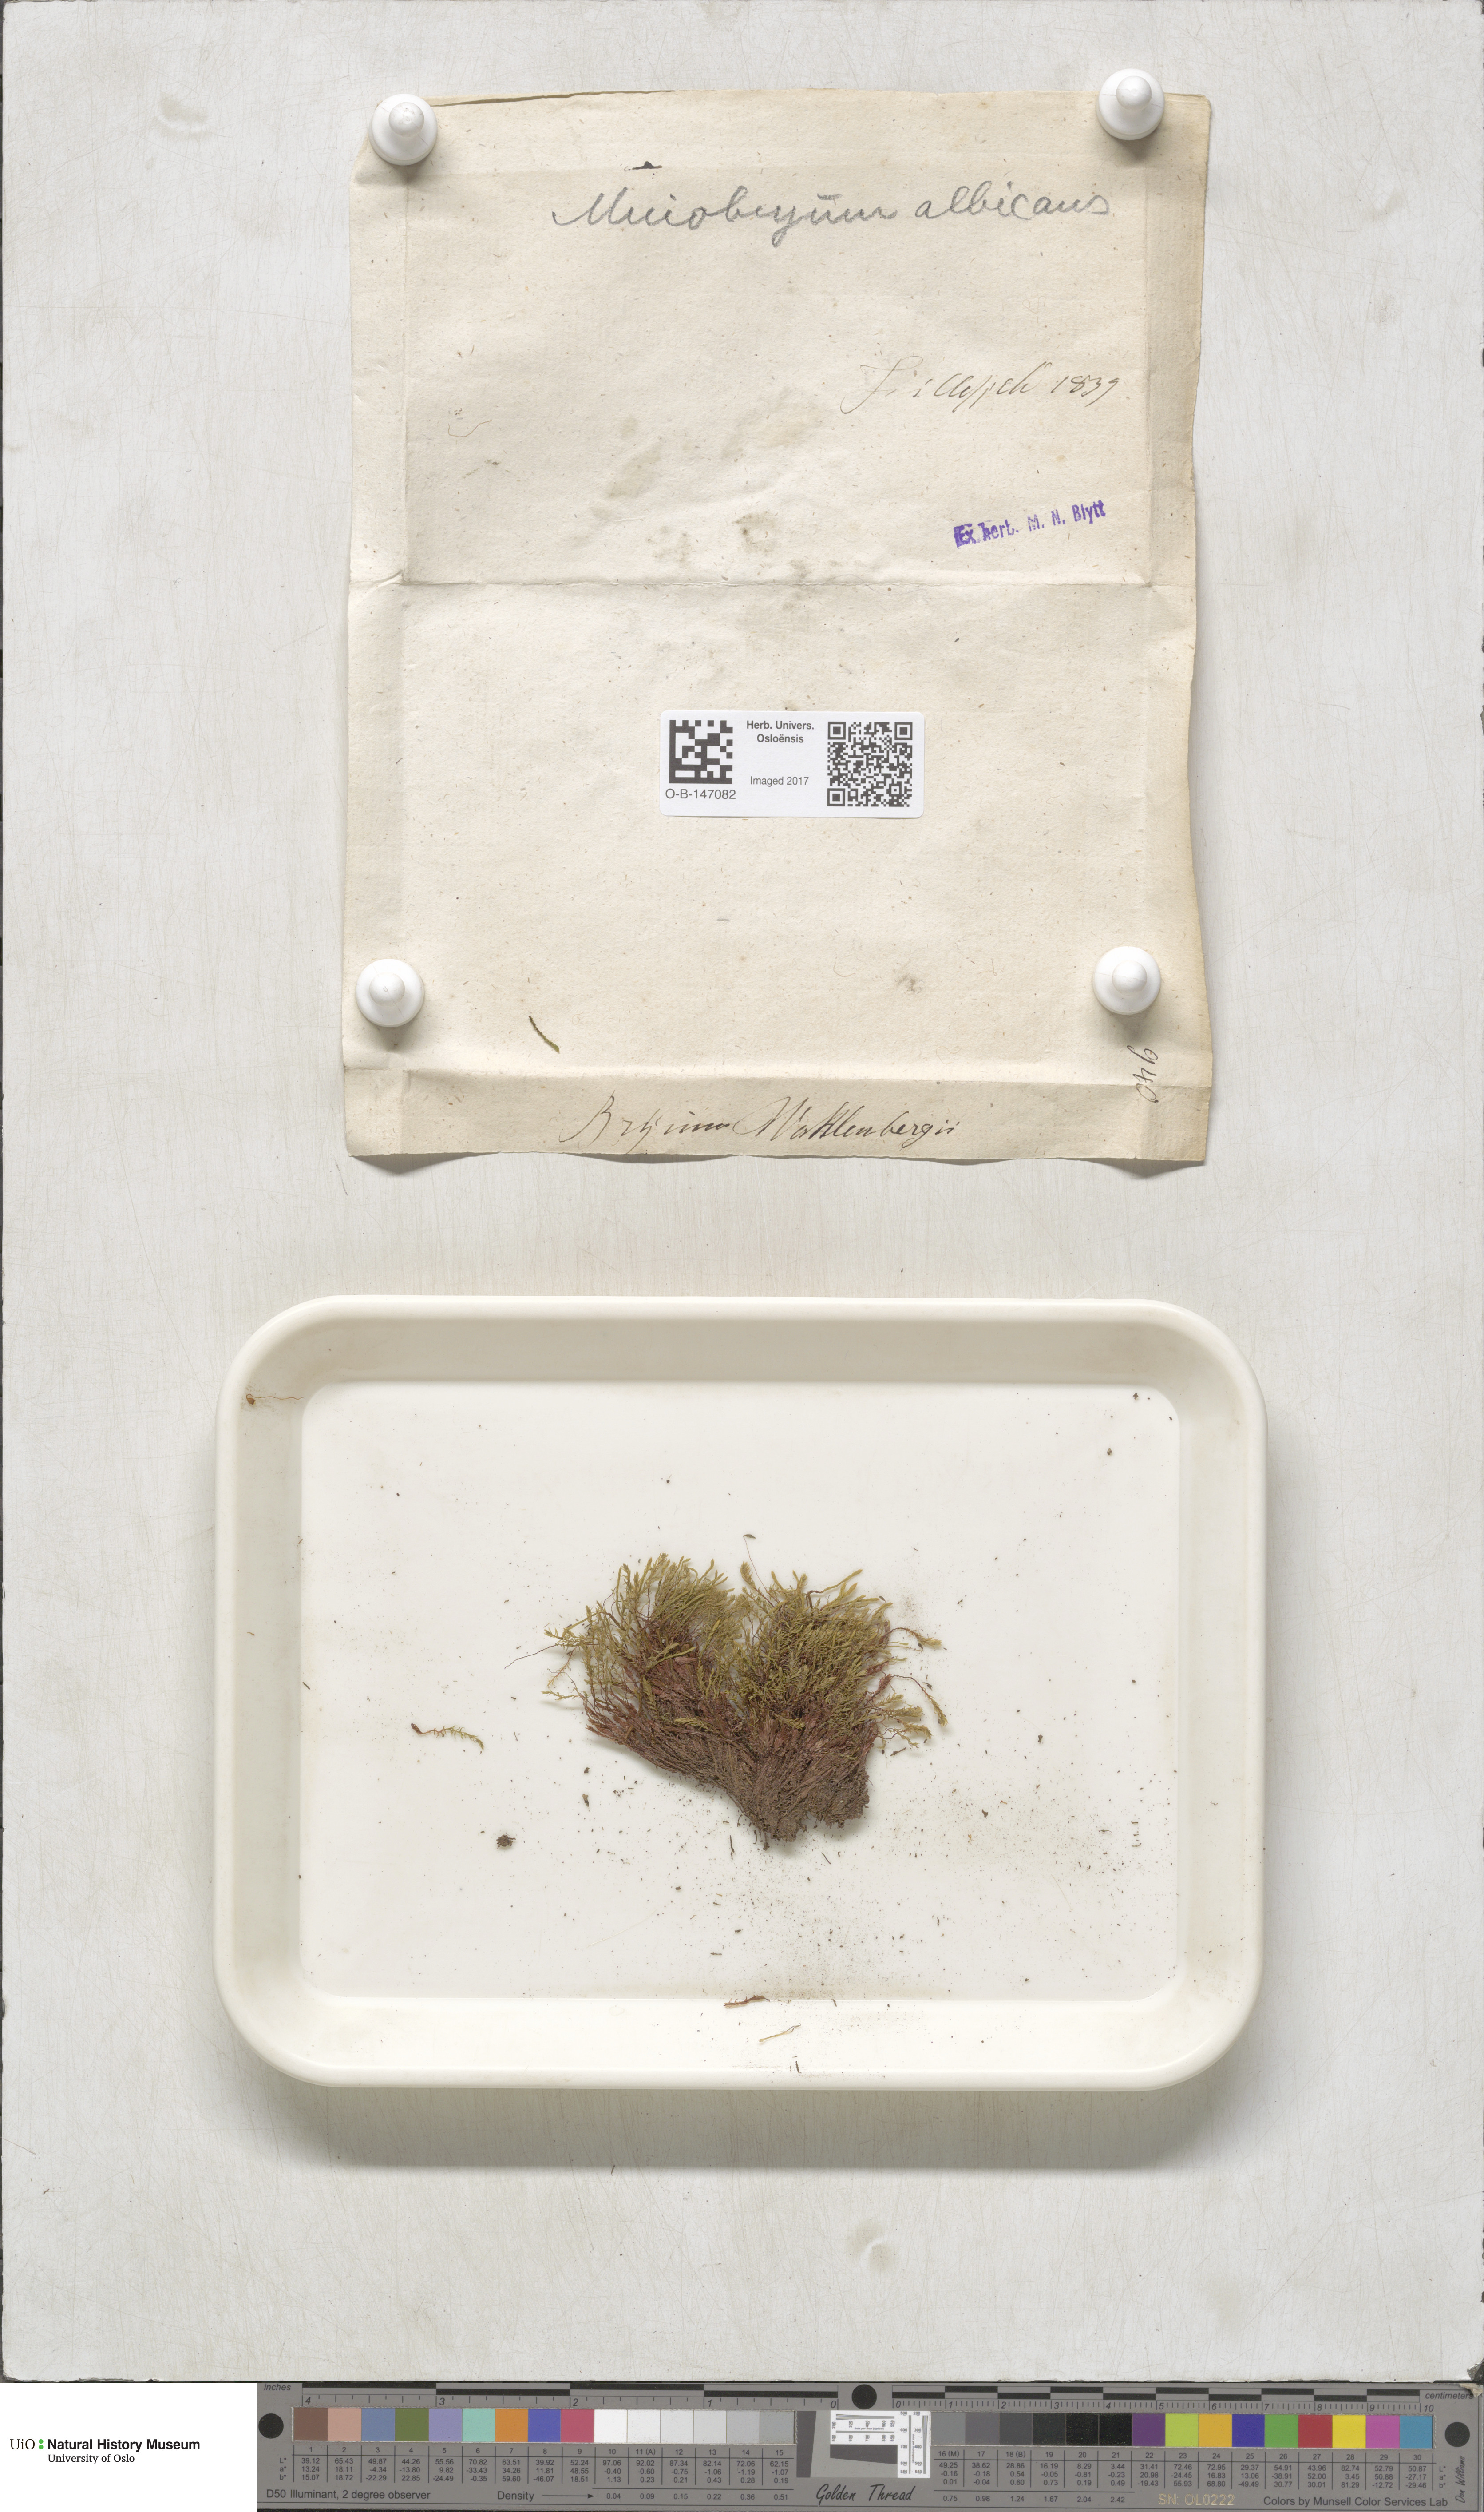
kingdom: Plantae
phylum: Bryophyta
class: Bryopsida
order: Bryales
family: Mniaceae
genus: Pohlia
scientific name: Pohlia wahlenbergii
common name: Wahlenberg's nodding moss
